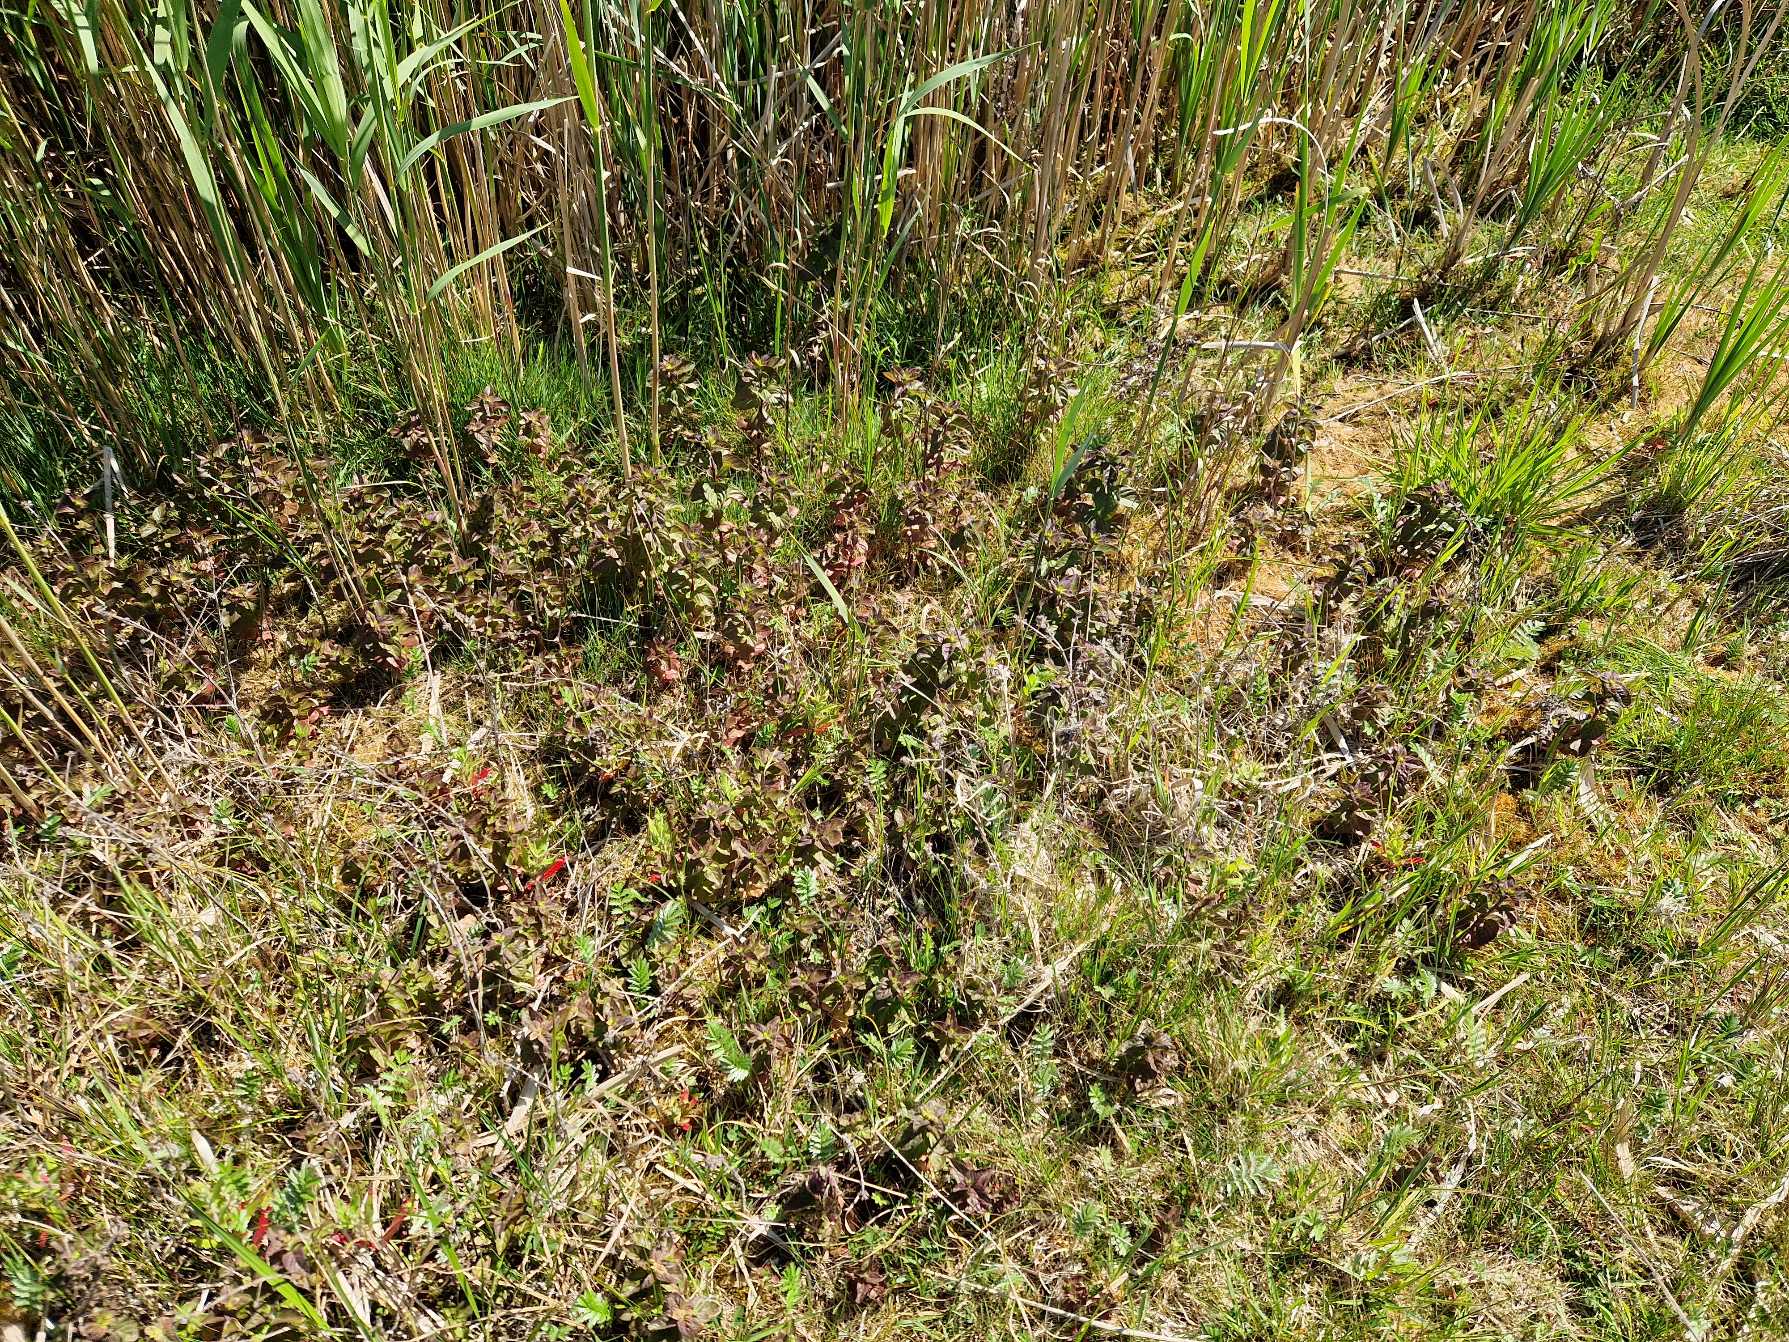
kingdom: Plantae
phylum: Tracheophyta
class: Magnoliopsida
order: Lamiales
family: Lamiaceae
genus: Mentha
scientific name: Mentha aquatica
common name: Vand-mynte
